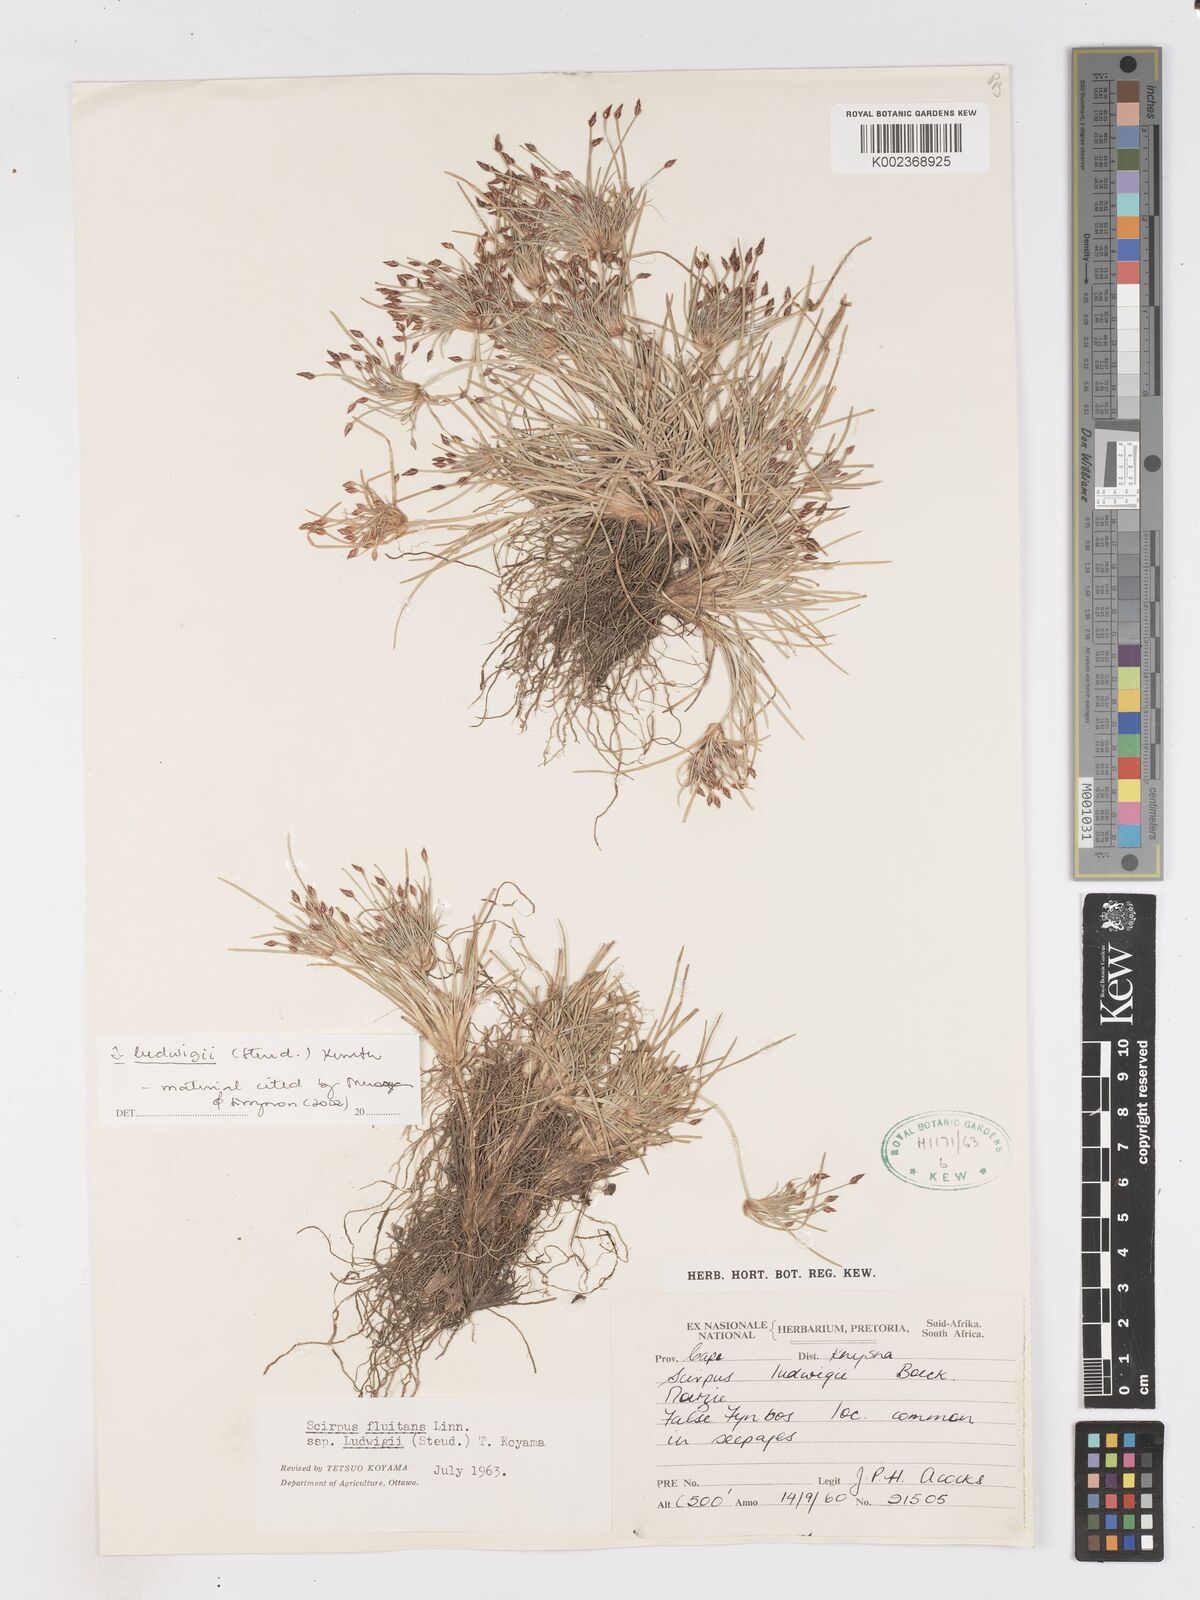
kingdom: Plantae
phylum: Tracheophyta
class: Liliopsida
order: Poales
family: Cyperaceae
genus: Isolepis
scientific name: Isolepis ludwigii
